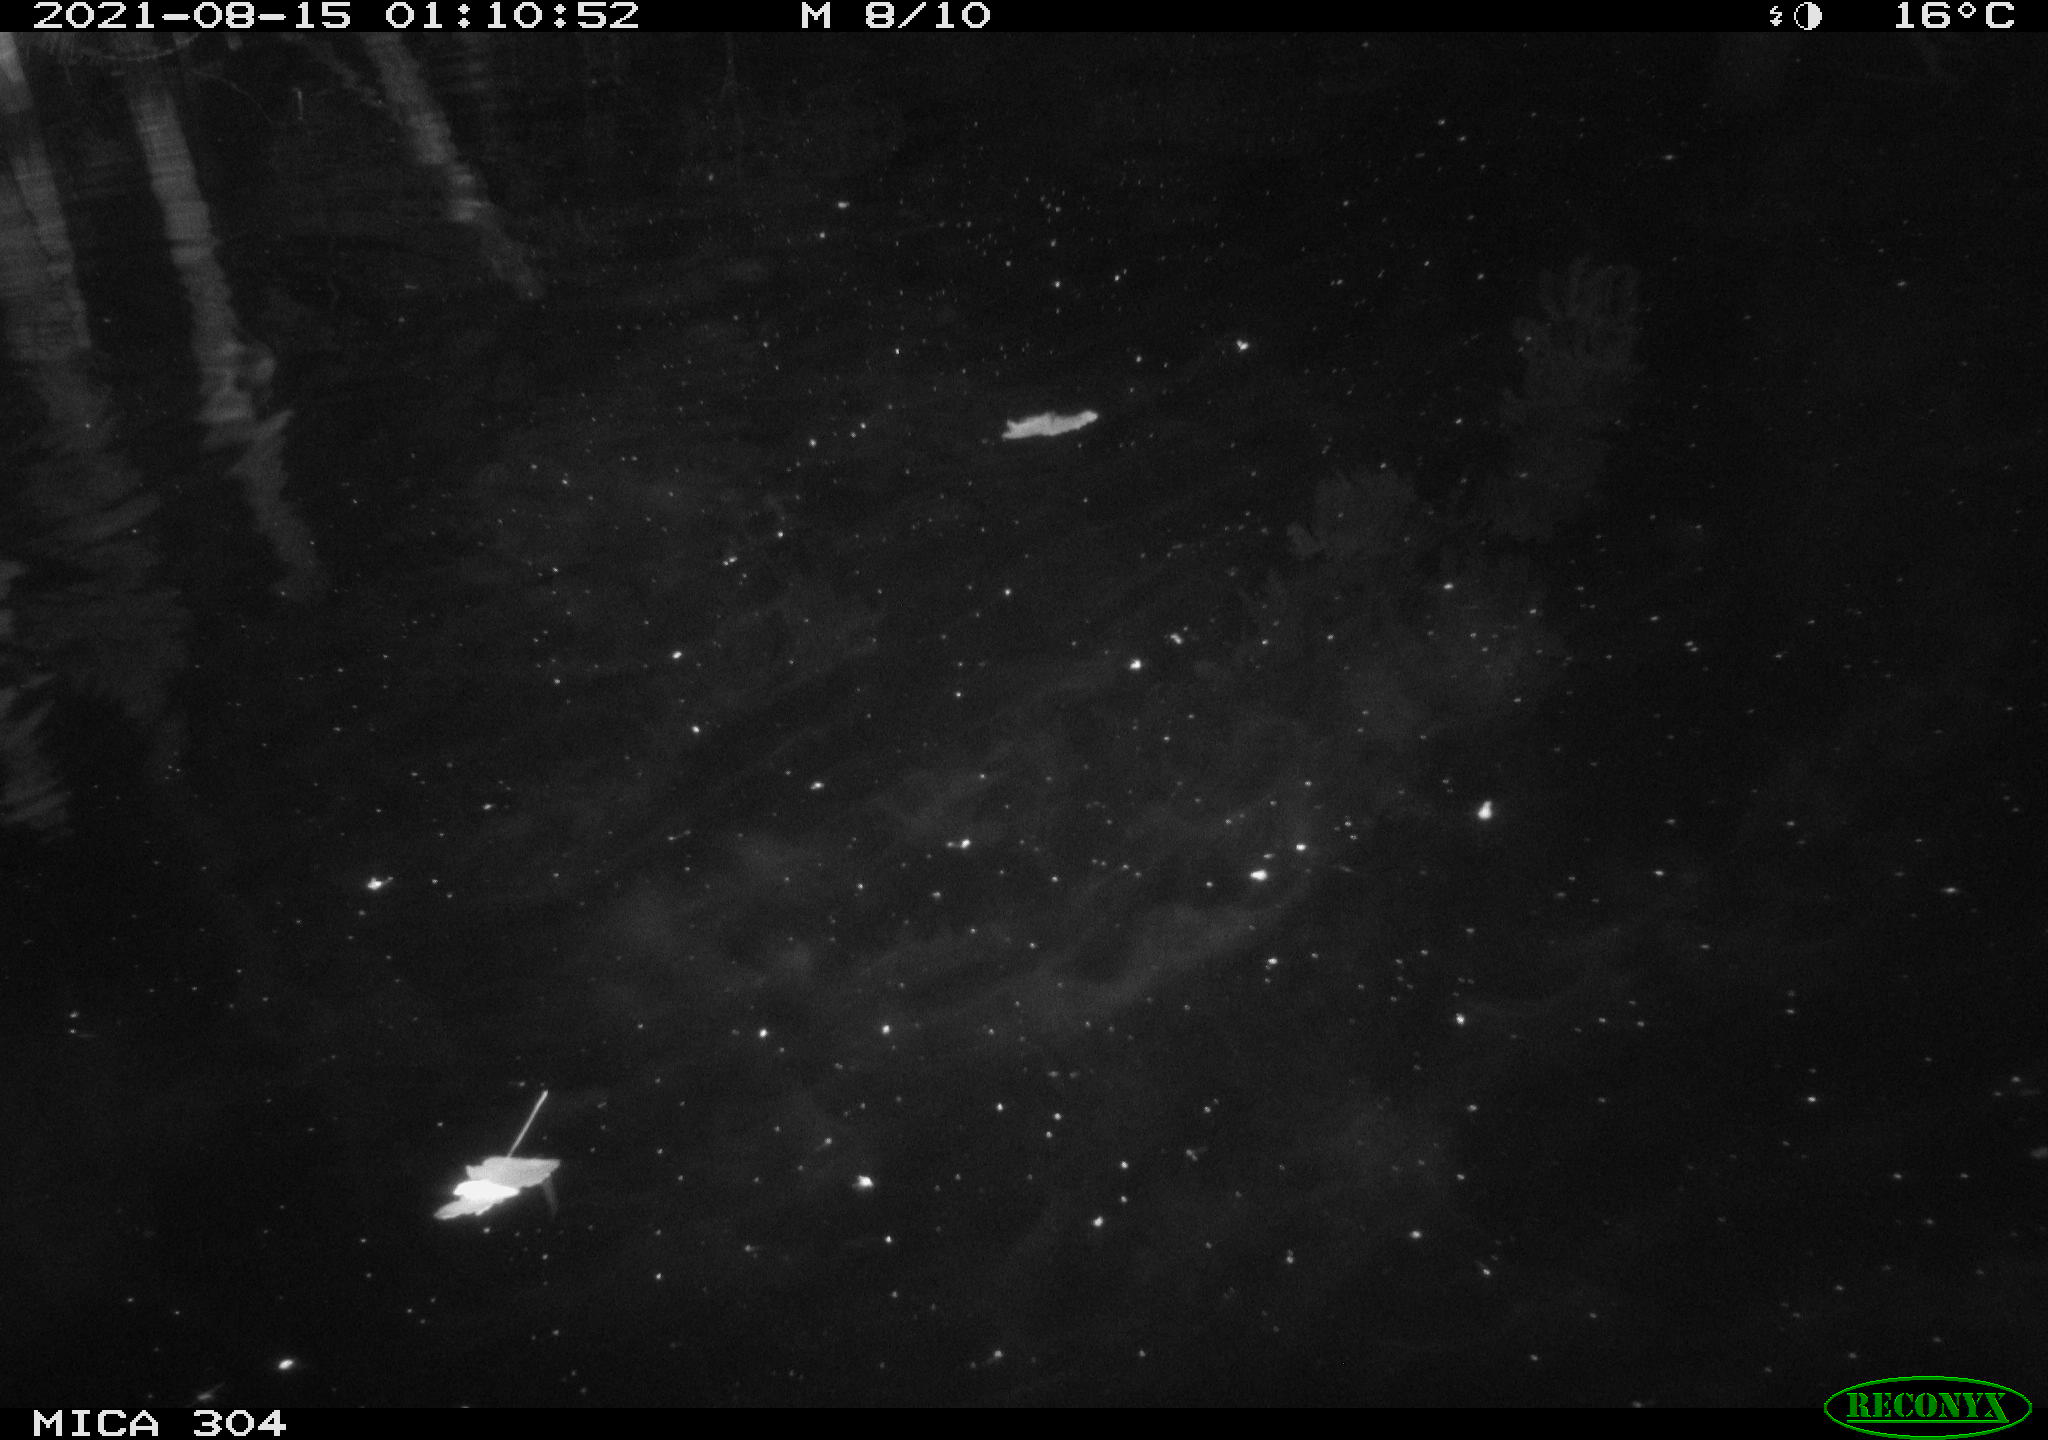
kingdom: Animalia
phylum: Chordata
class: Aves
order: Anseriformes
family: Anatidae
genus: Anas
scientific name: Anas platyrhynchos
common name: Mallard
